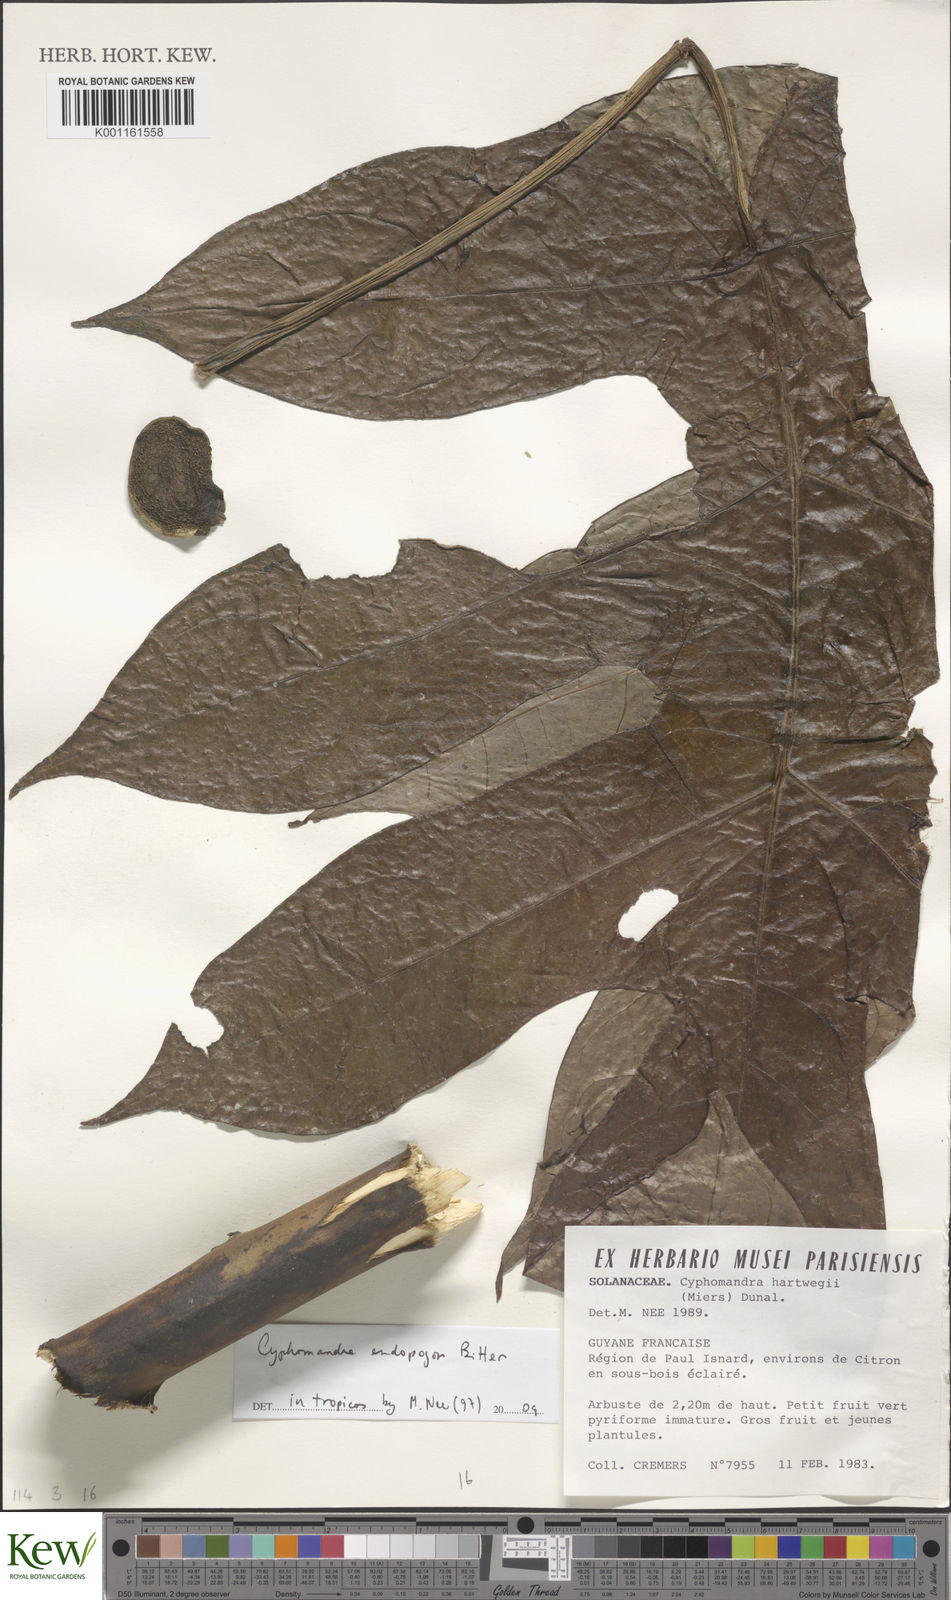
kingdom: Plantae
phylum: Tracheophyta
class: Magnoliopsida
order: Solanales
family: Solanaceae
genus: Solanum
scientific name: Solanum endopogon
